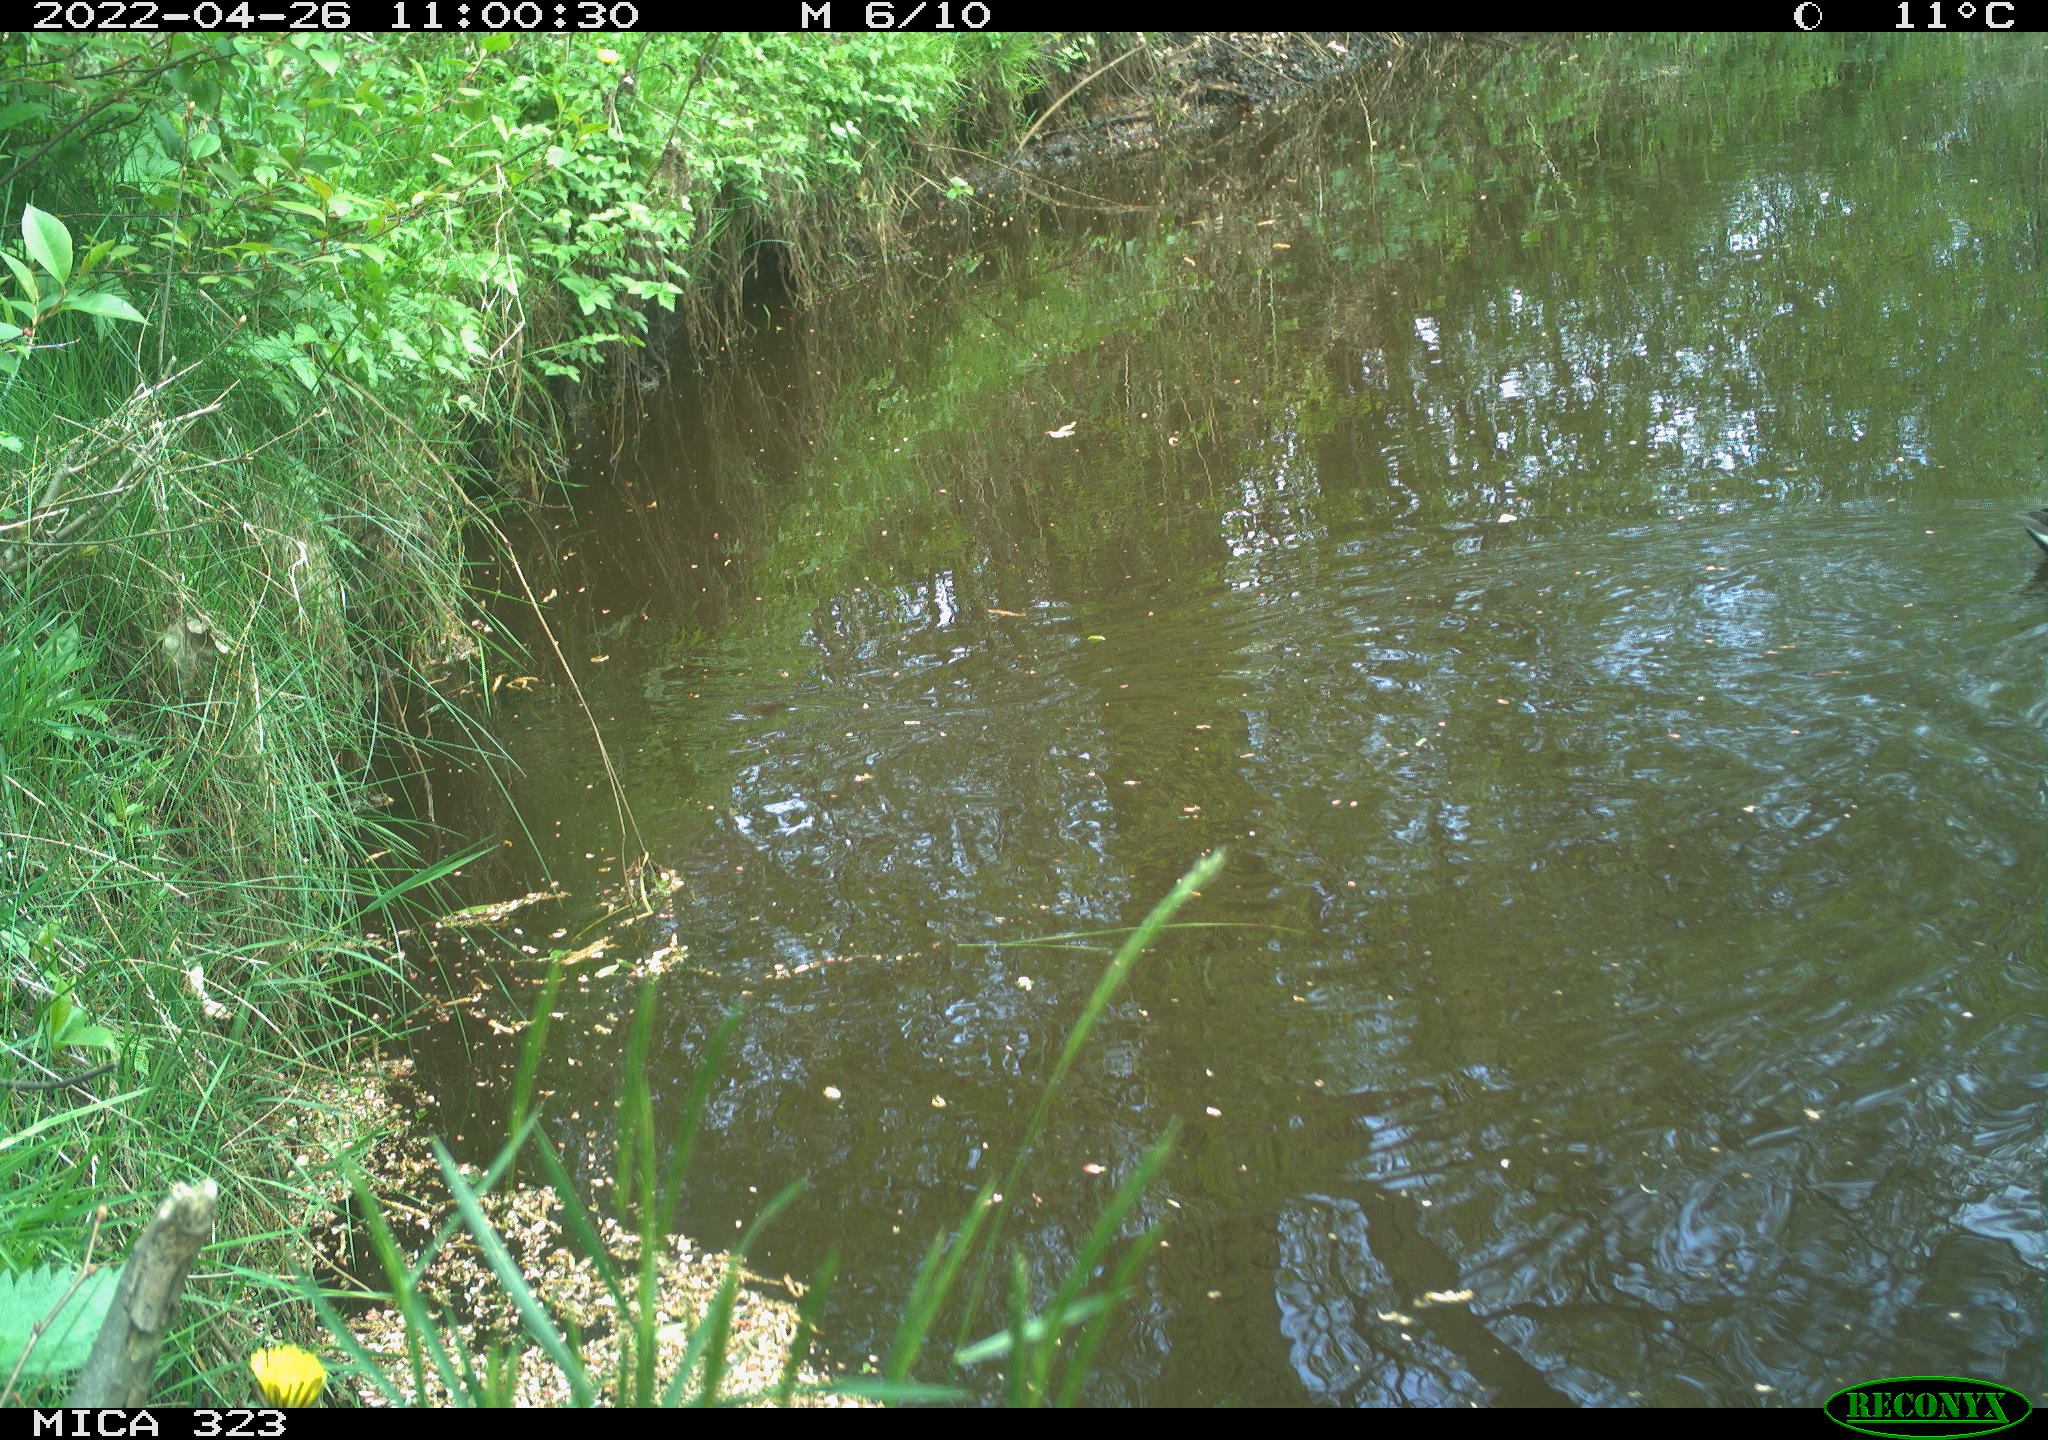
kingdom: Animalia
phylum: Chordata
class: Aves
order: Gruiformes
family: Rallidae
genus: Gallinula
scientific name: Gallinula chloropus
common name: Common moorhen
